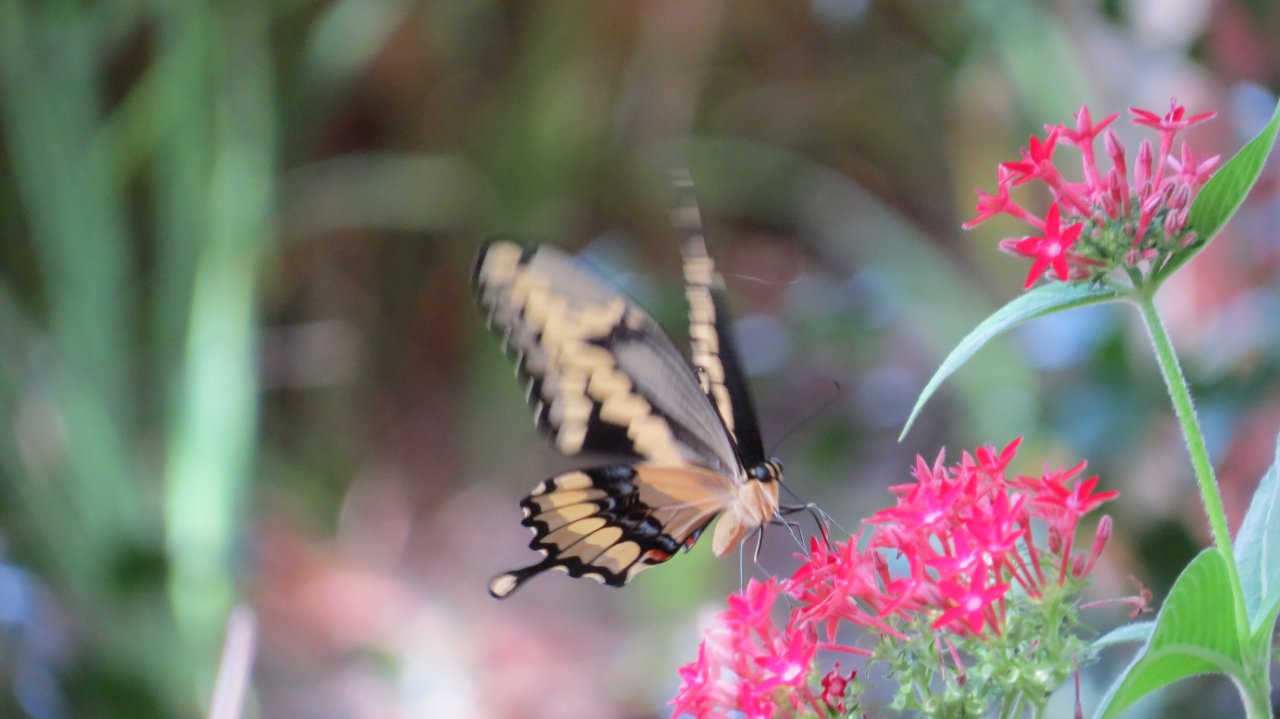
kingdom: Animalia
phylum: Arthropoda
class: Insecta
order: Lepidoptera
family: Papilionidae
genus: Papilio
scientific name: Papilio cresphontes
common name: Eastern Giant Swallowtail
